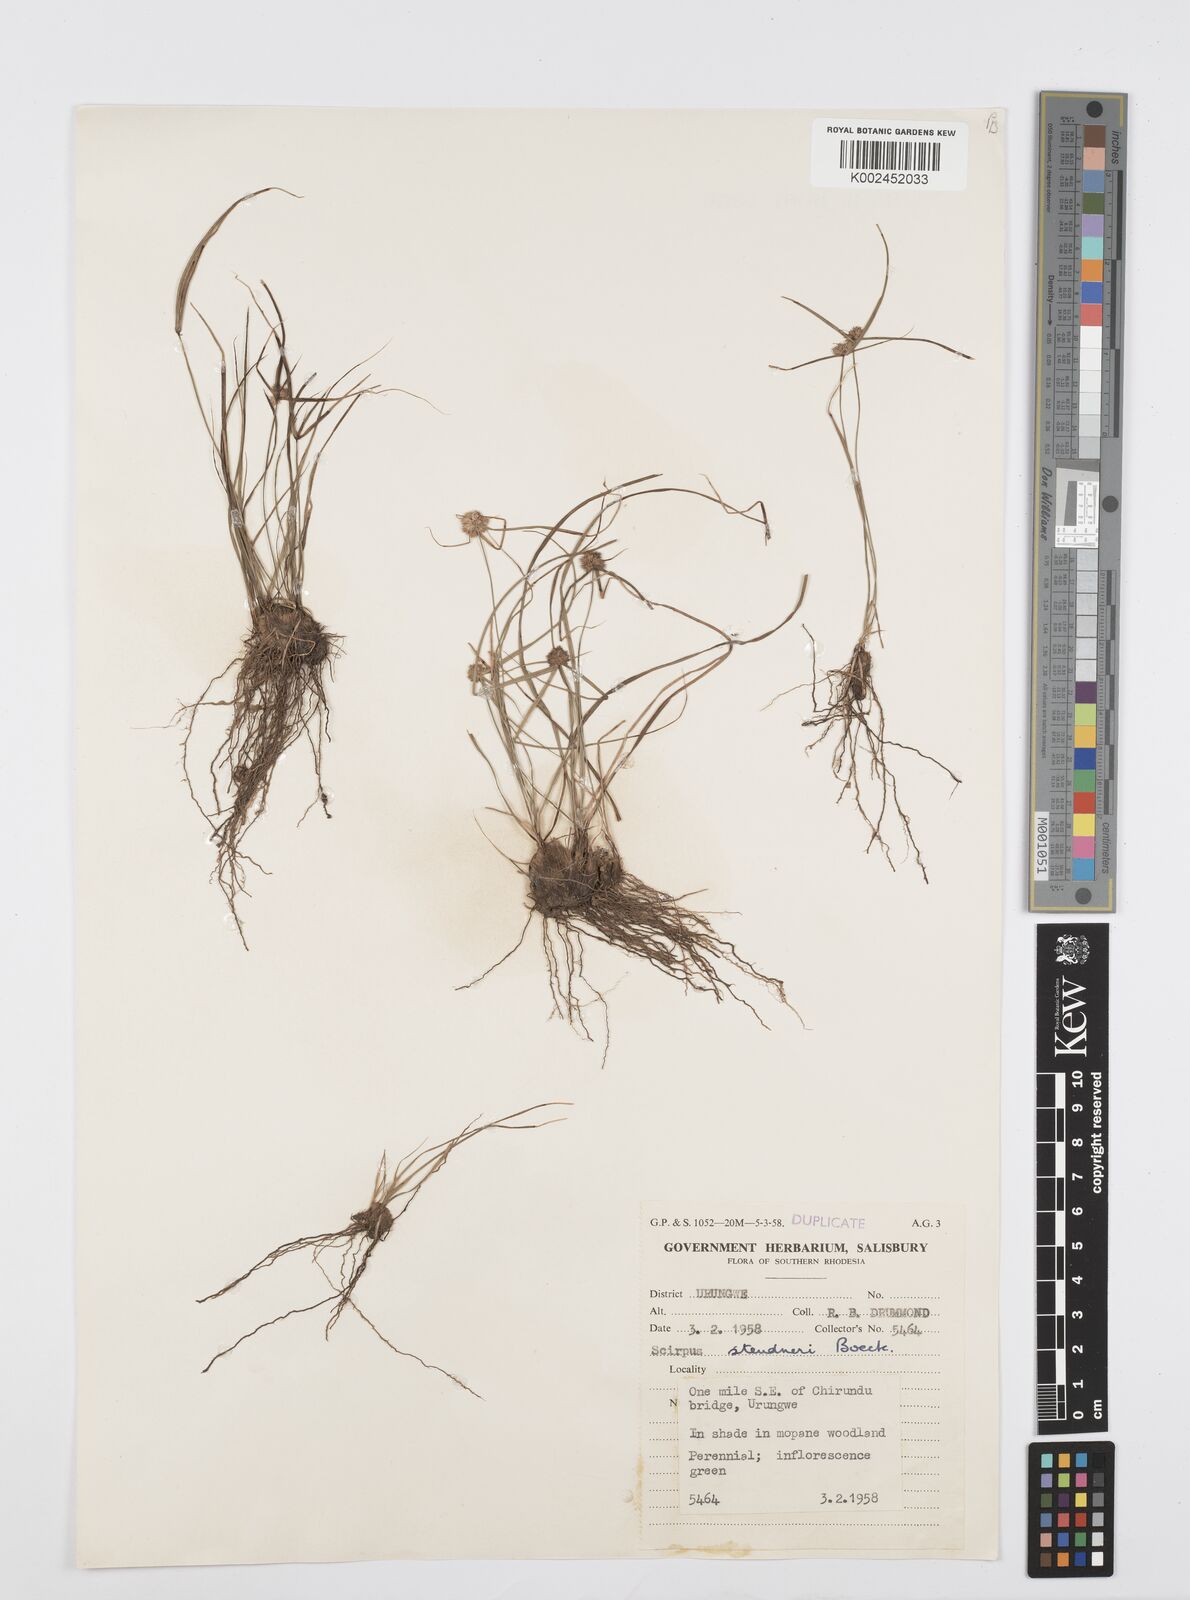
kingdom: Plantae
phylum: Tracheophyta
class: Liliopsida
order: Poales
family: Cyperaceae
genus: Cyperus
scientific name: Cyperus bulbosus
